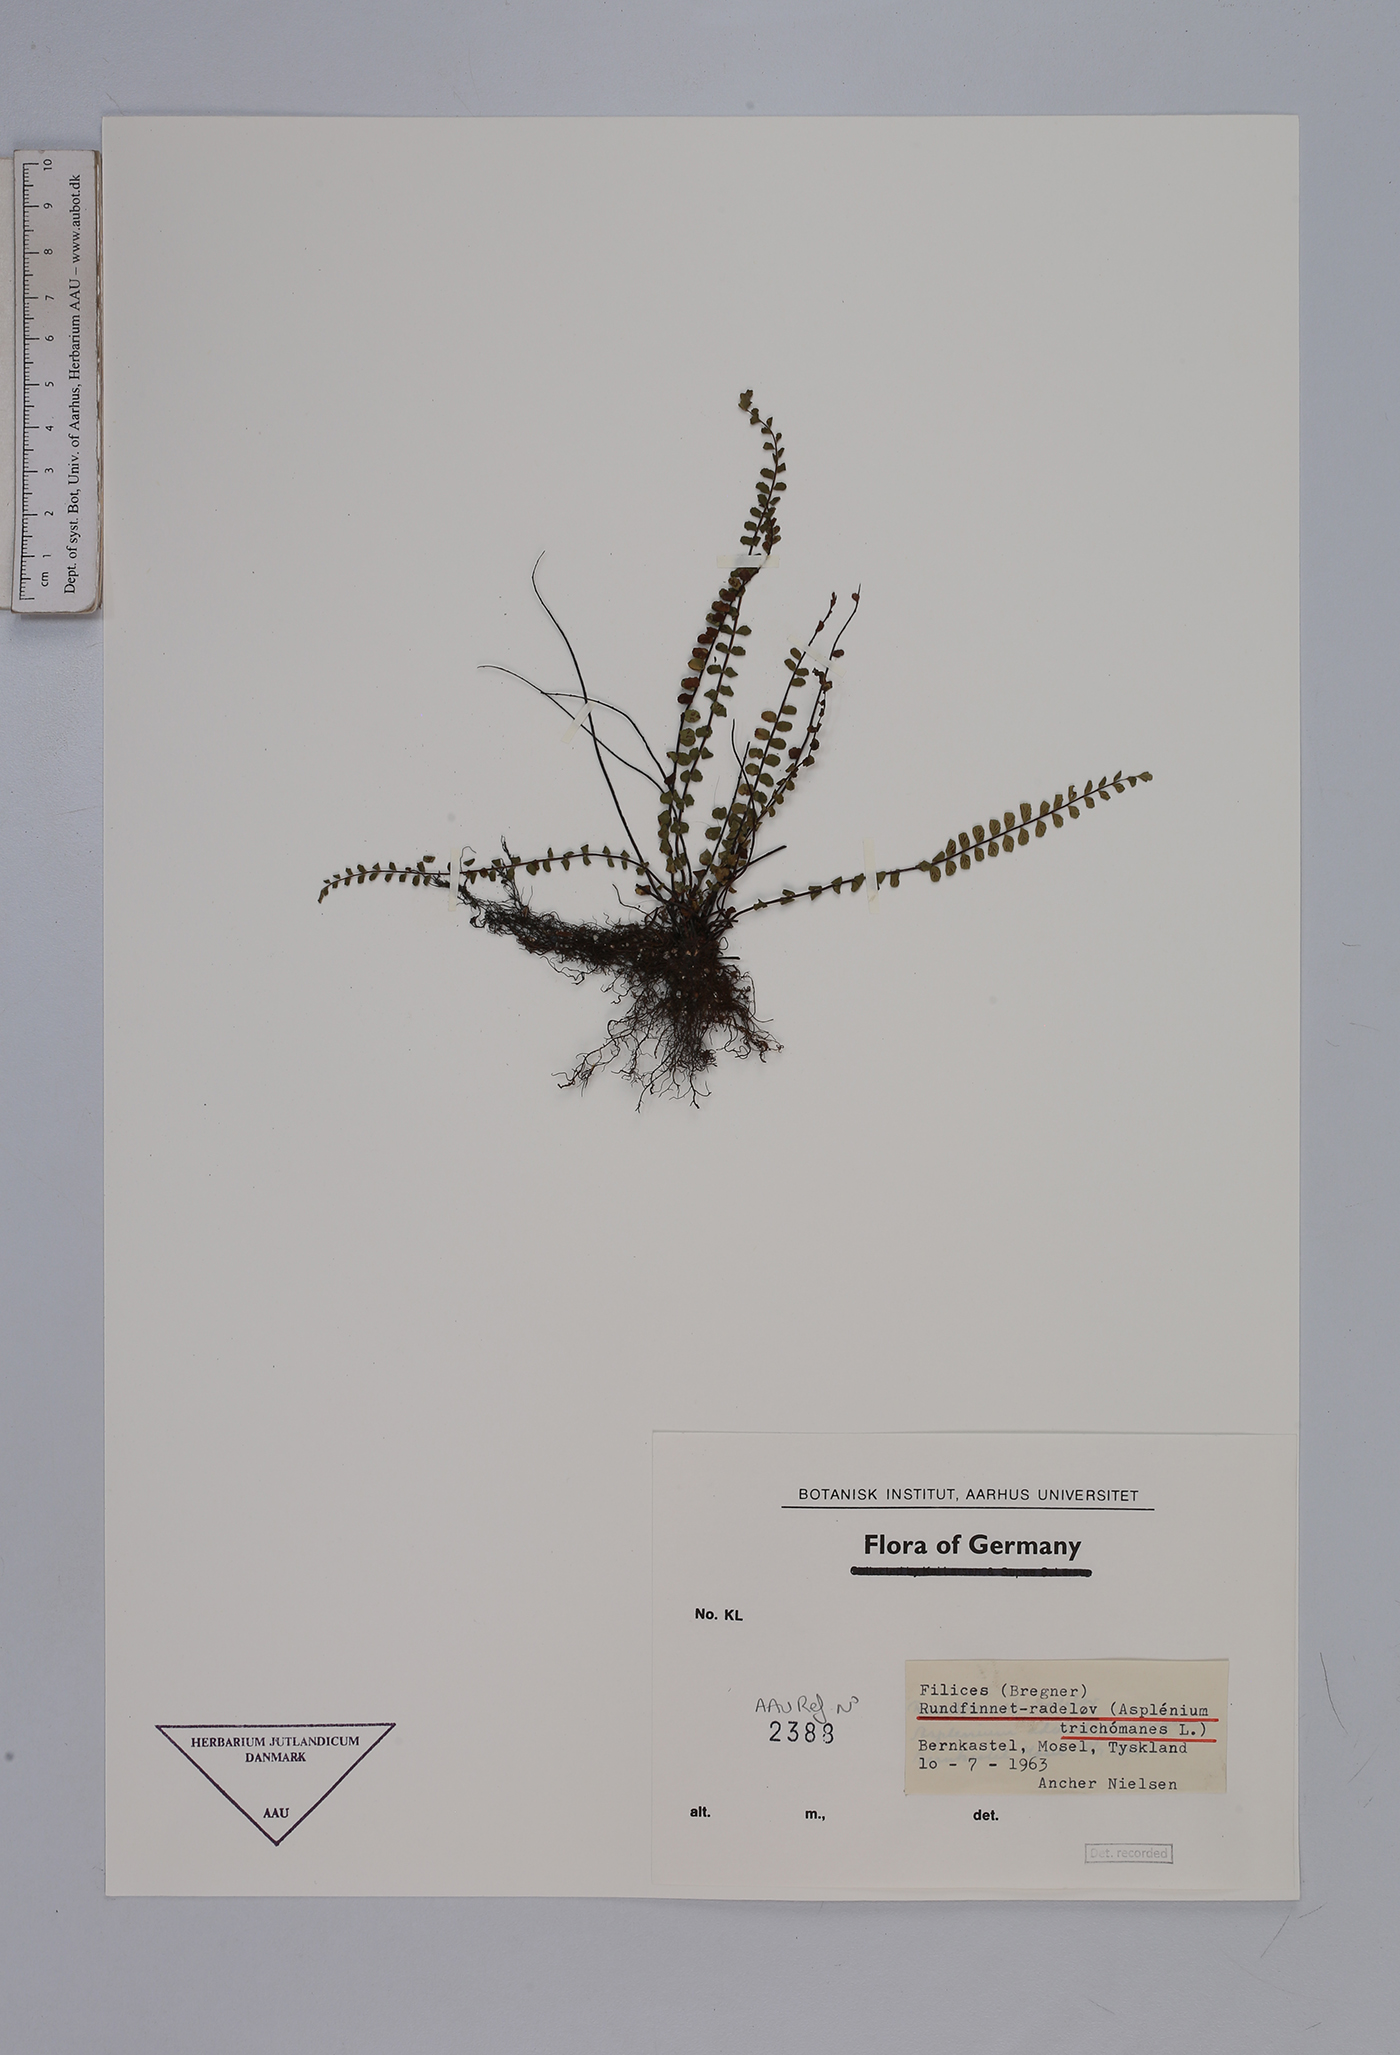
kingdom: Plantae
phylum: Tracheophyta
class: Polypodiopsida
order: Polypodiales
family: Aspleniaceae
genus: Asplenium
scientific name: Asplenium trichomanes
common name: Maidenhair spleenwort
